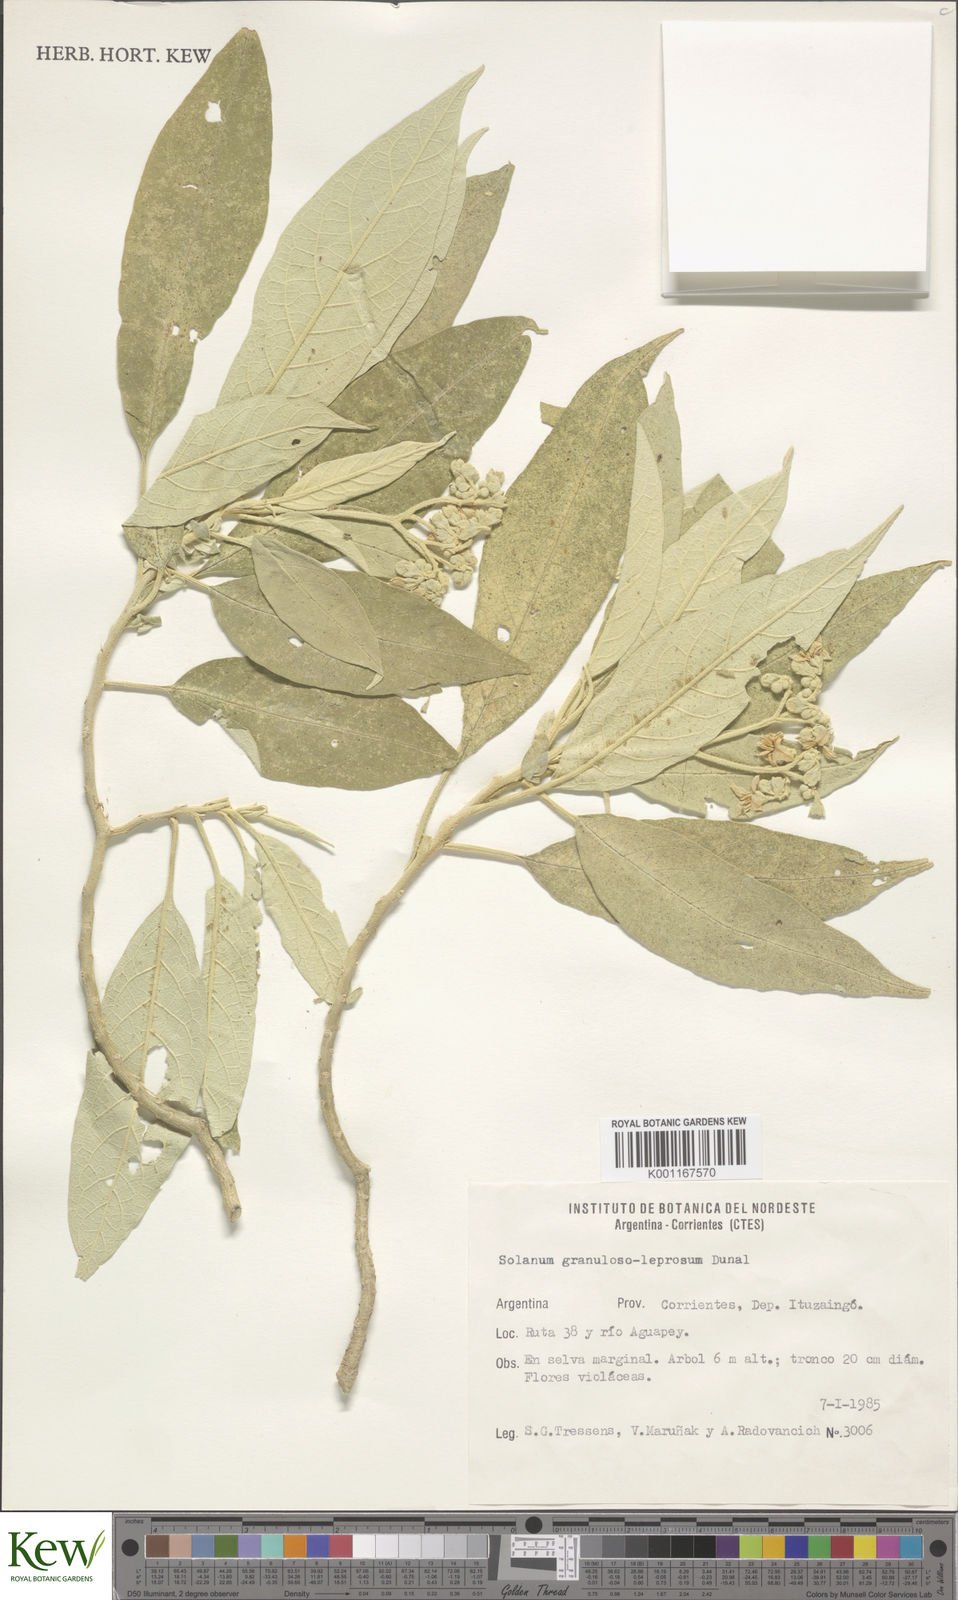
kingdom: Plantae
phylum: Tracheophyta
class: Magnoliopsida
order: Solanales
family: Solanaceae
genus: Solanum
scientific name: Solanum granulosoleprosum
